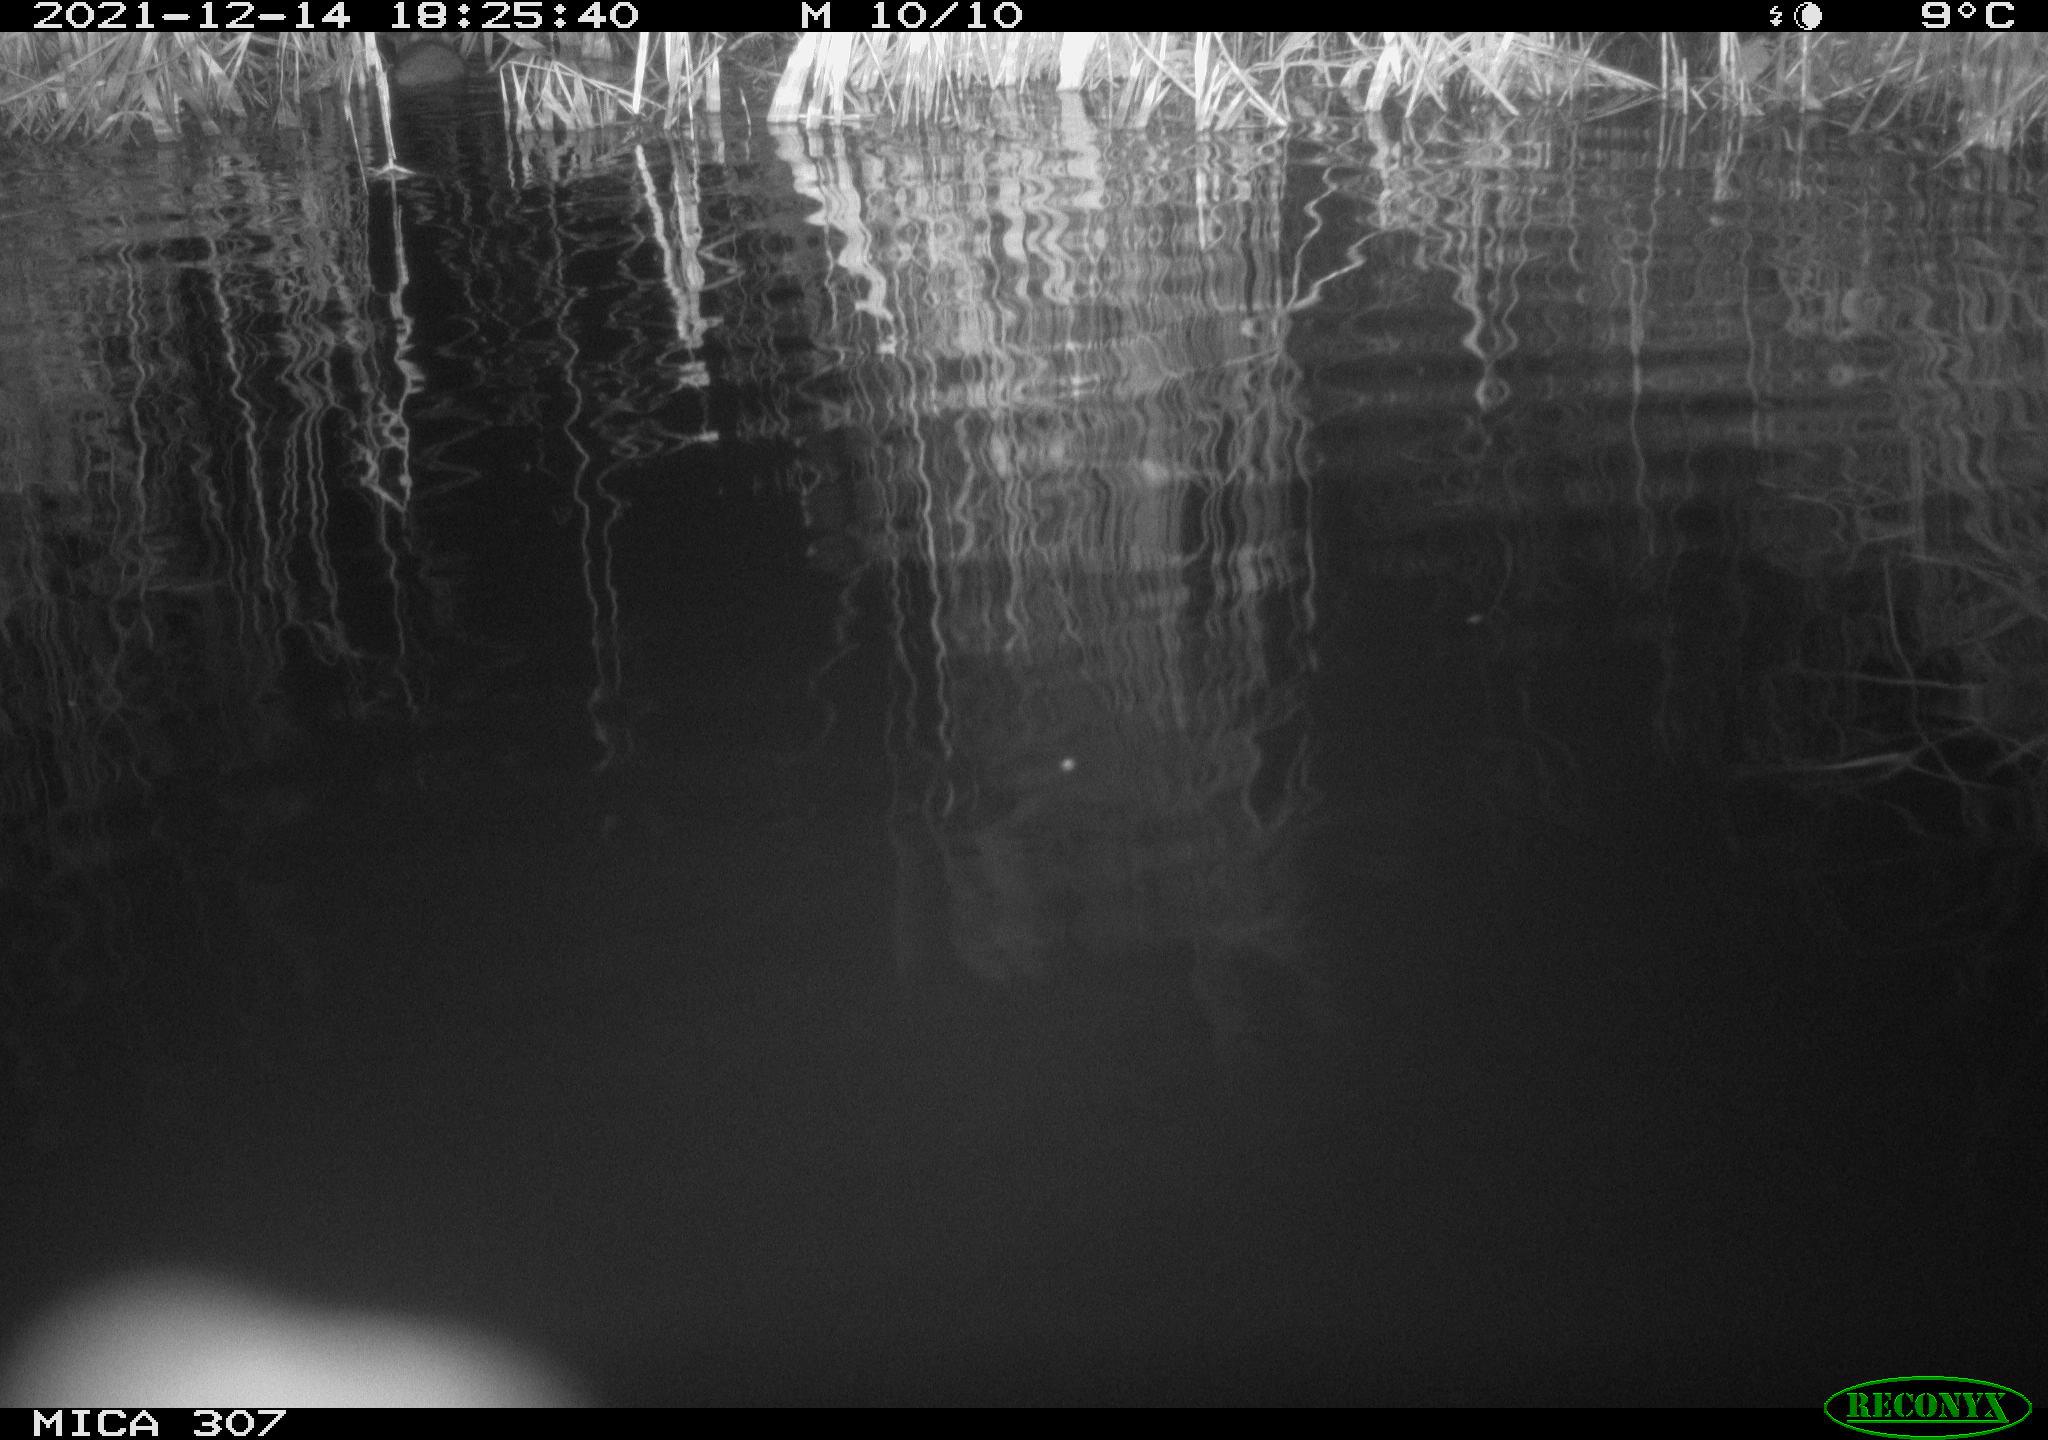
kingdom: Animalia
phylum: Chordata
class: Mammalia
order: Rodentia
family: Muridae
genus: Rattus
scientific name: Rattus norvegicus
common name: Brown rat
